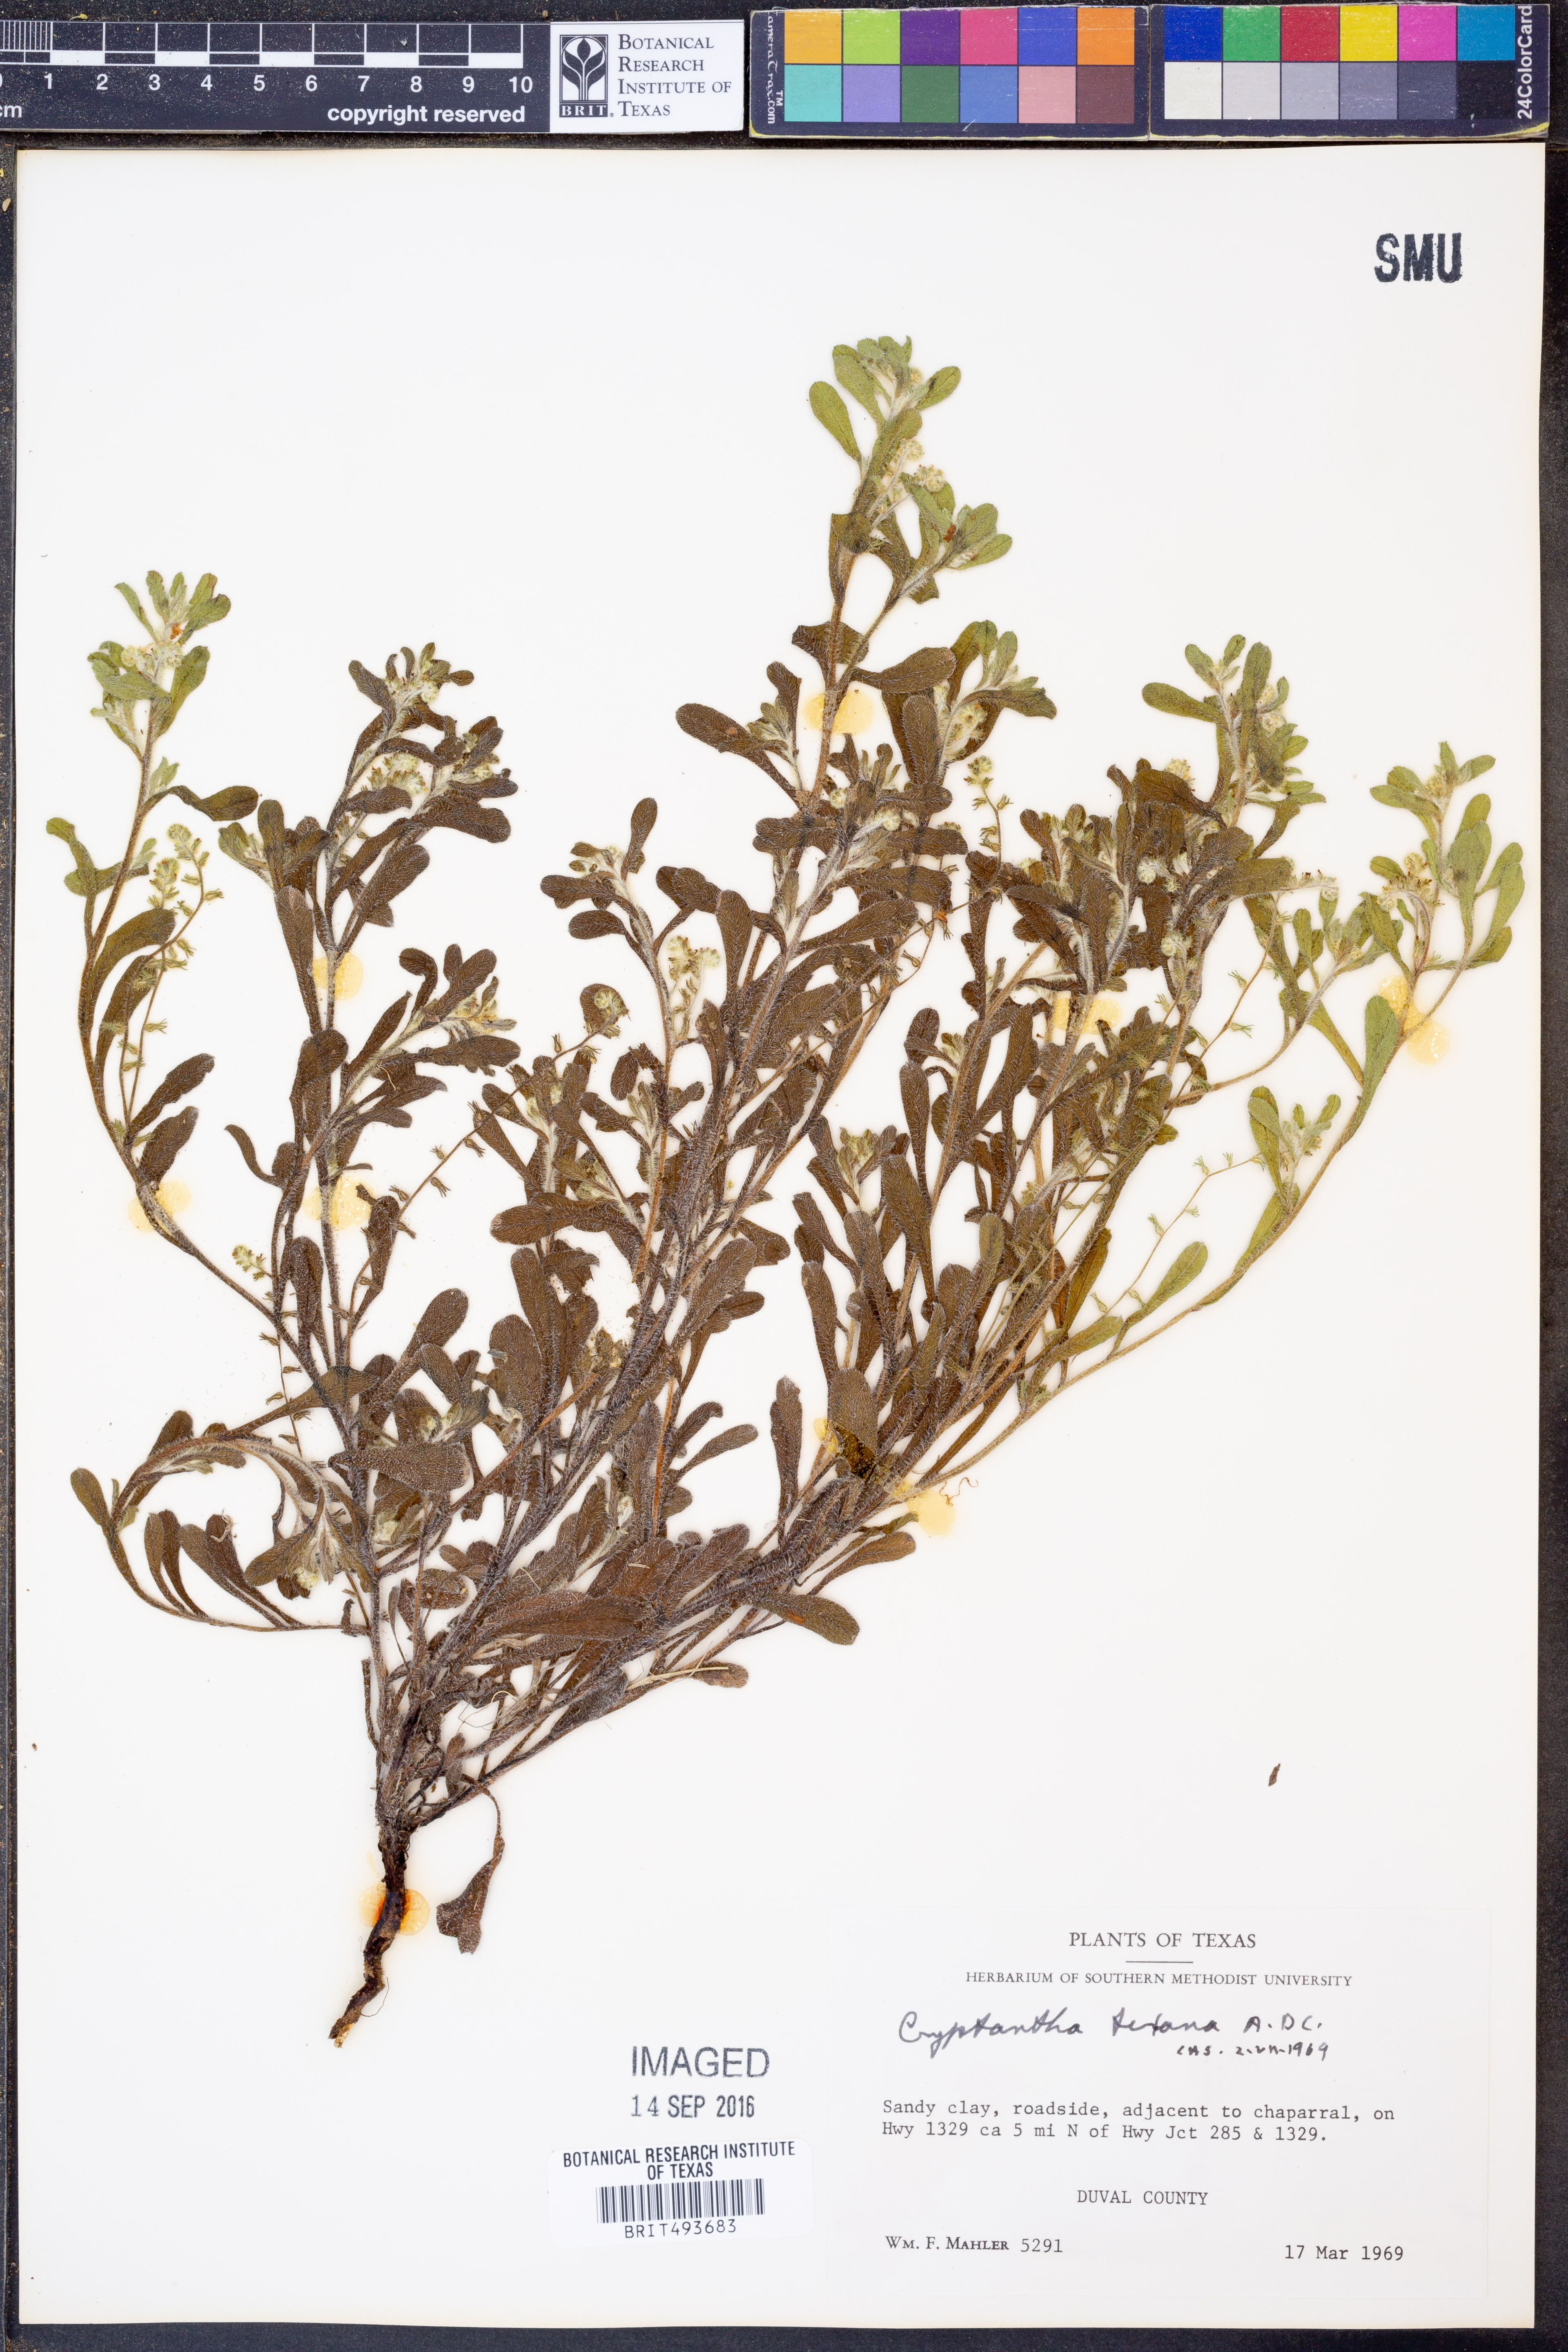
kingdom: Plantae
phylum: Tracheophyta
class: Magnoliopsida
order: Boraginales
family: Boraginaceae
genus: Cryptantha
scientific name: Cryptantha texana
